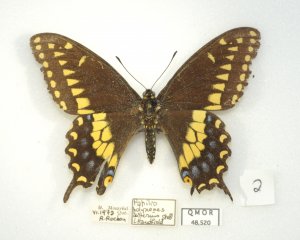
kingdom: Animalia
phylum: Arthropoda
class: Insecta
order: Lepidoptera
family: Papilionidae
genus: Papilio
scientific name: Papilio polyxenes
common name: Black Swallowtail
